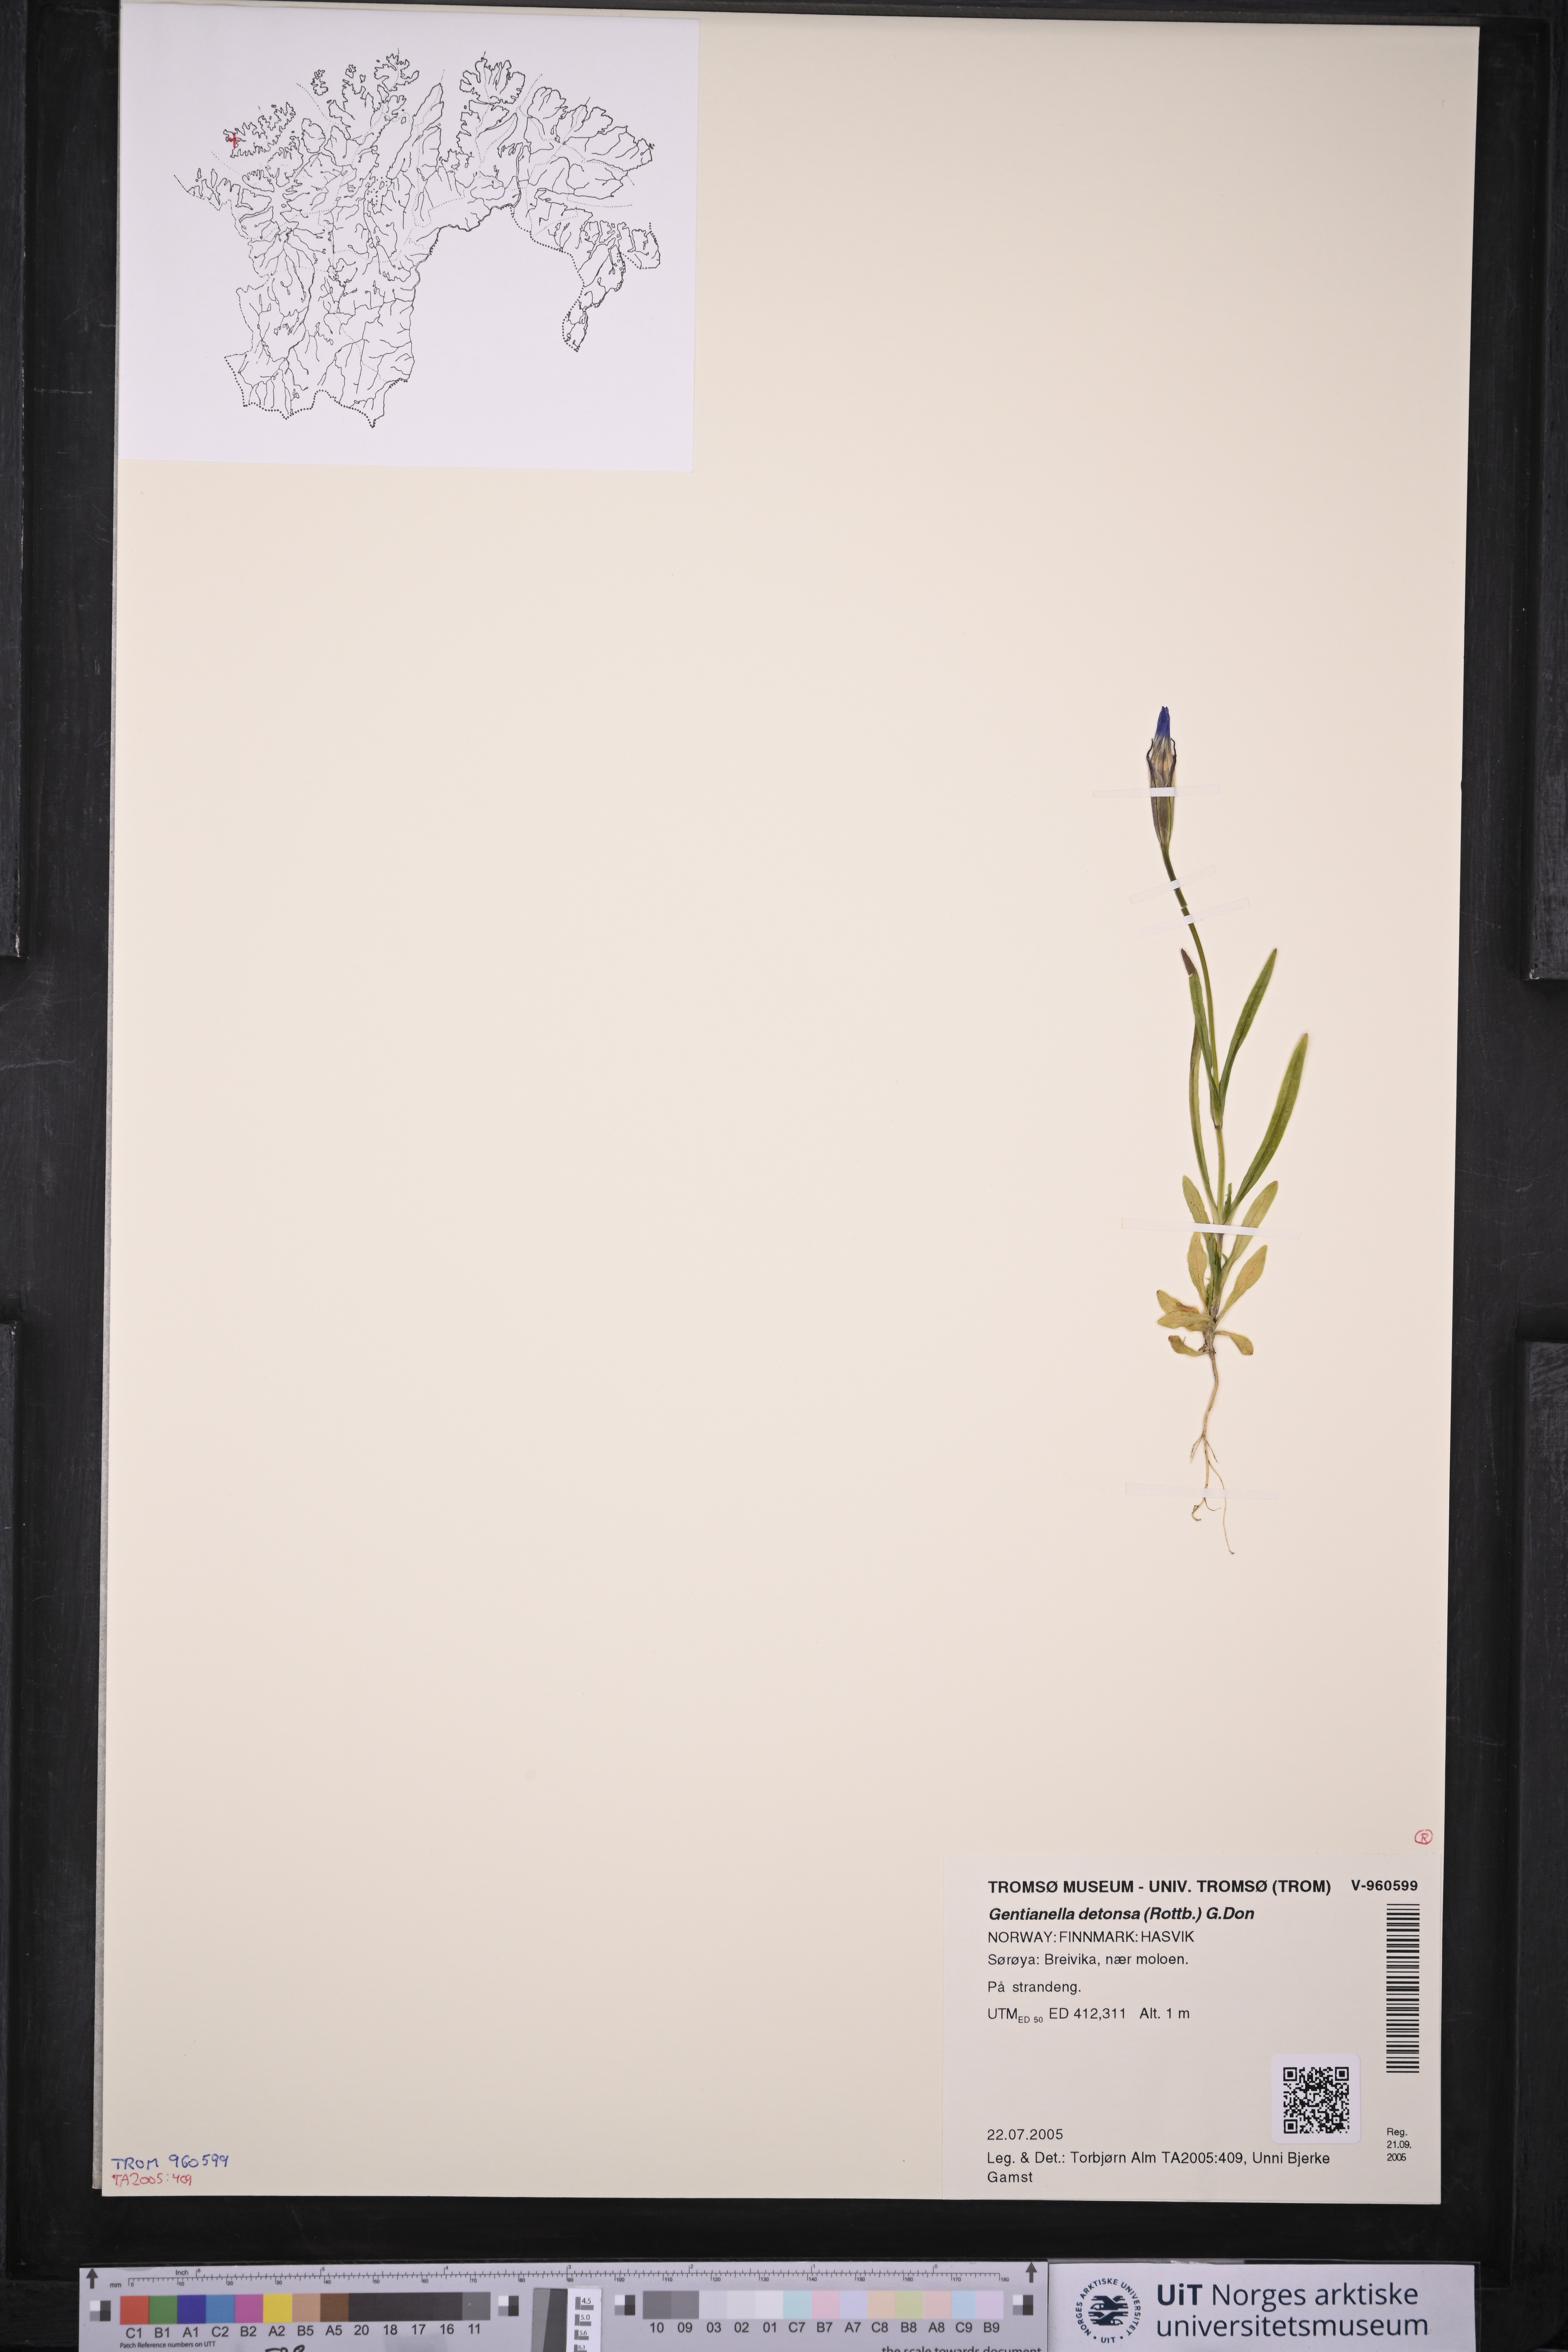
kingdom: Plantae
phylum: Tracheophyta
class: Magnoliopsida
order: Gentianales
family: Gentianaceae
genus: Gentianopsis
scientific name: Gentianopsis detonsa
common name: Fringed-gentian
